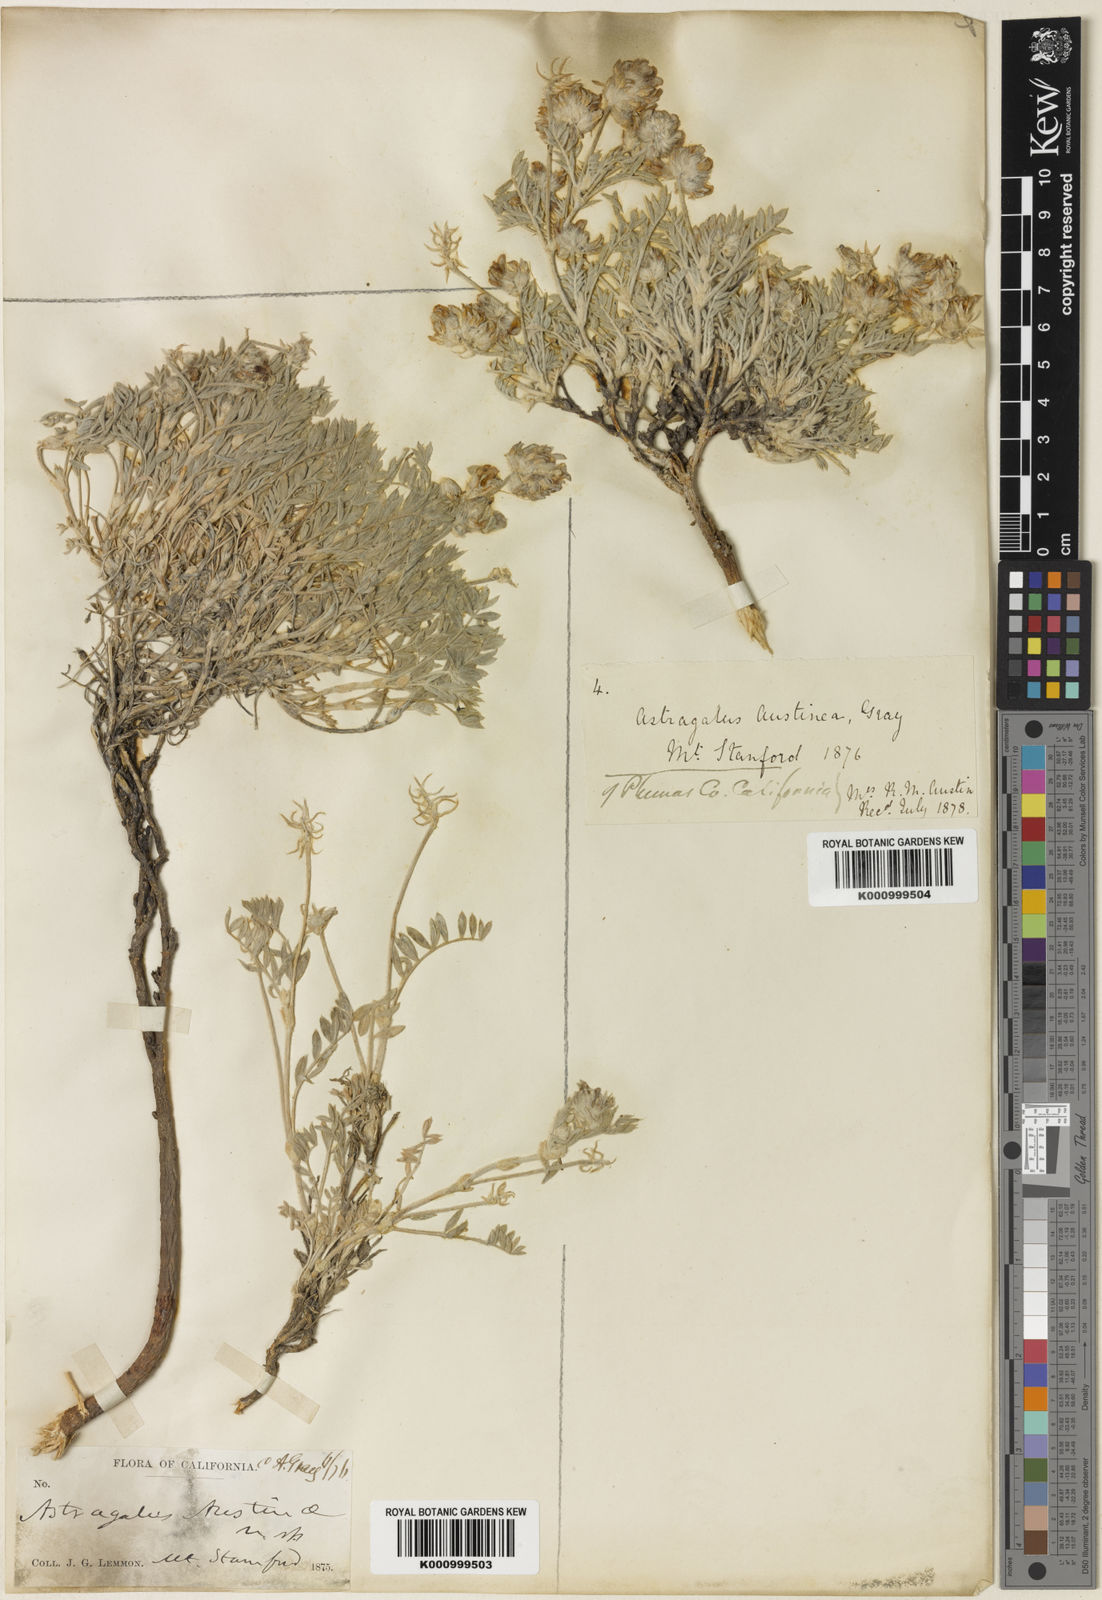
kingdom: Plantae
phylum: Tracheophyta
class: Magnoliopsida
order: Fabales
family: Fabaceae
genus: Astragalus
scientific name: Astragalus austiniae
